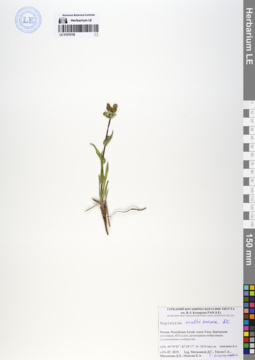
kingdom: Plantae
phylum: Tracheophyta
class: Magnoliopsida
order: Apiales
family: Apiaceae
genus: Bupleurum
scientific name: Bupleurum multinerve
